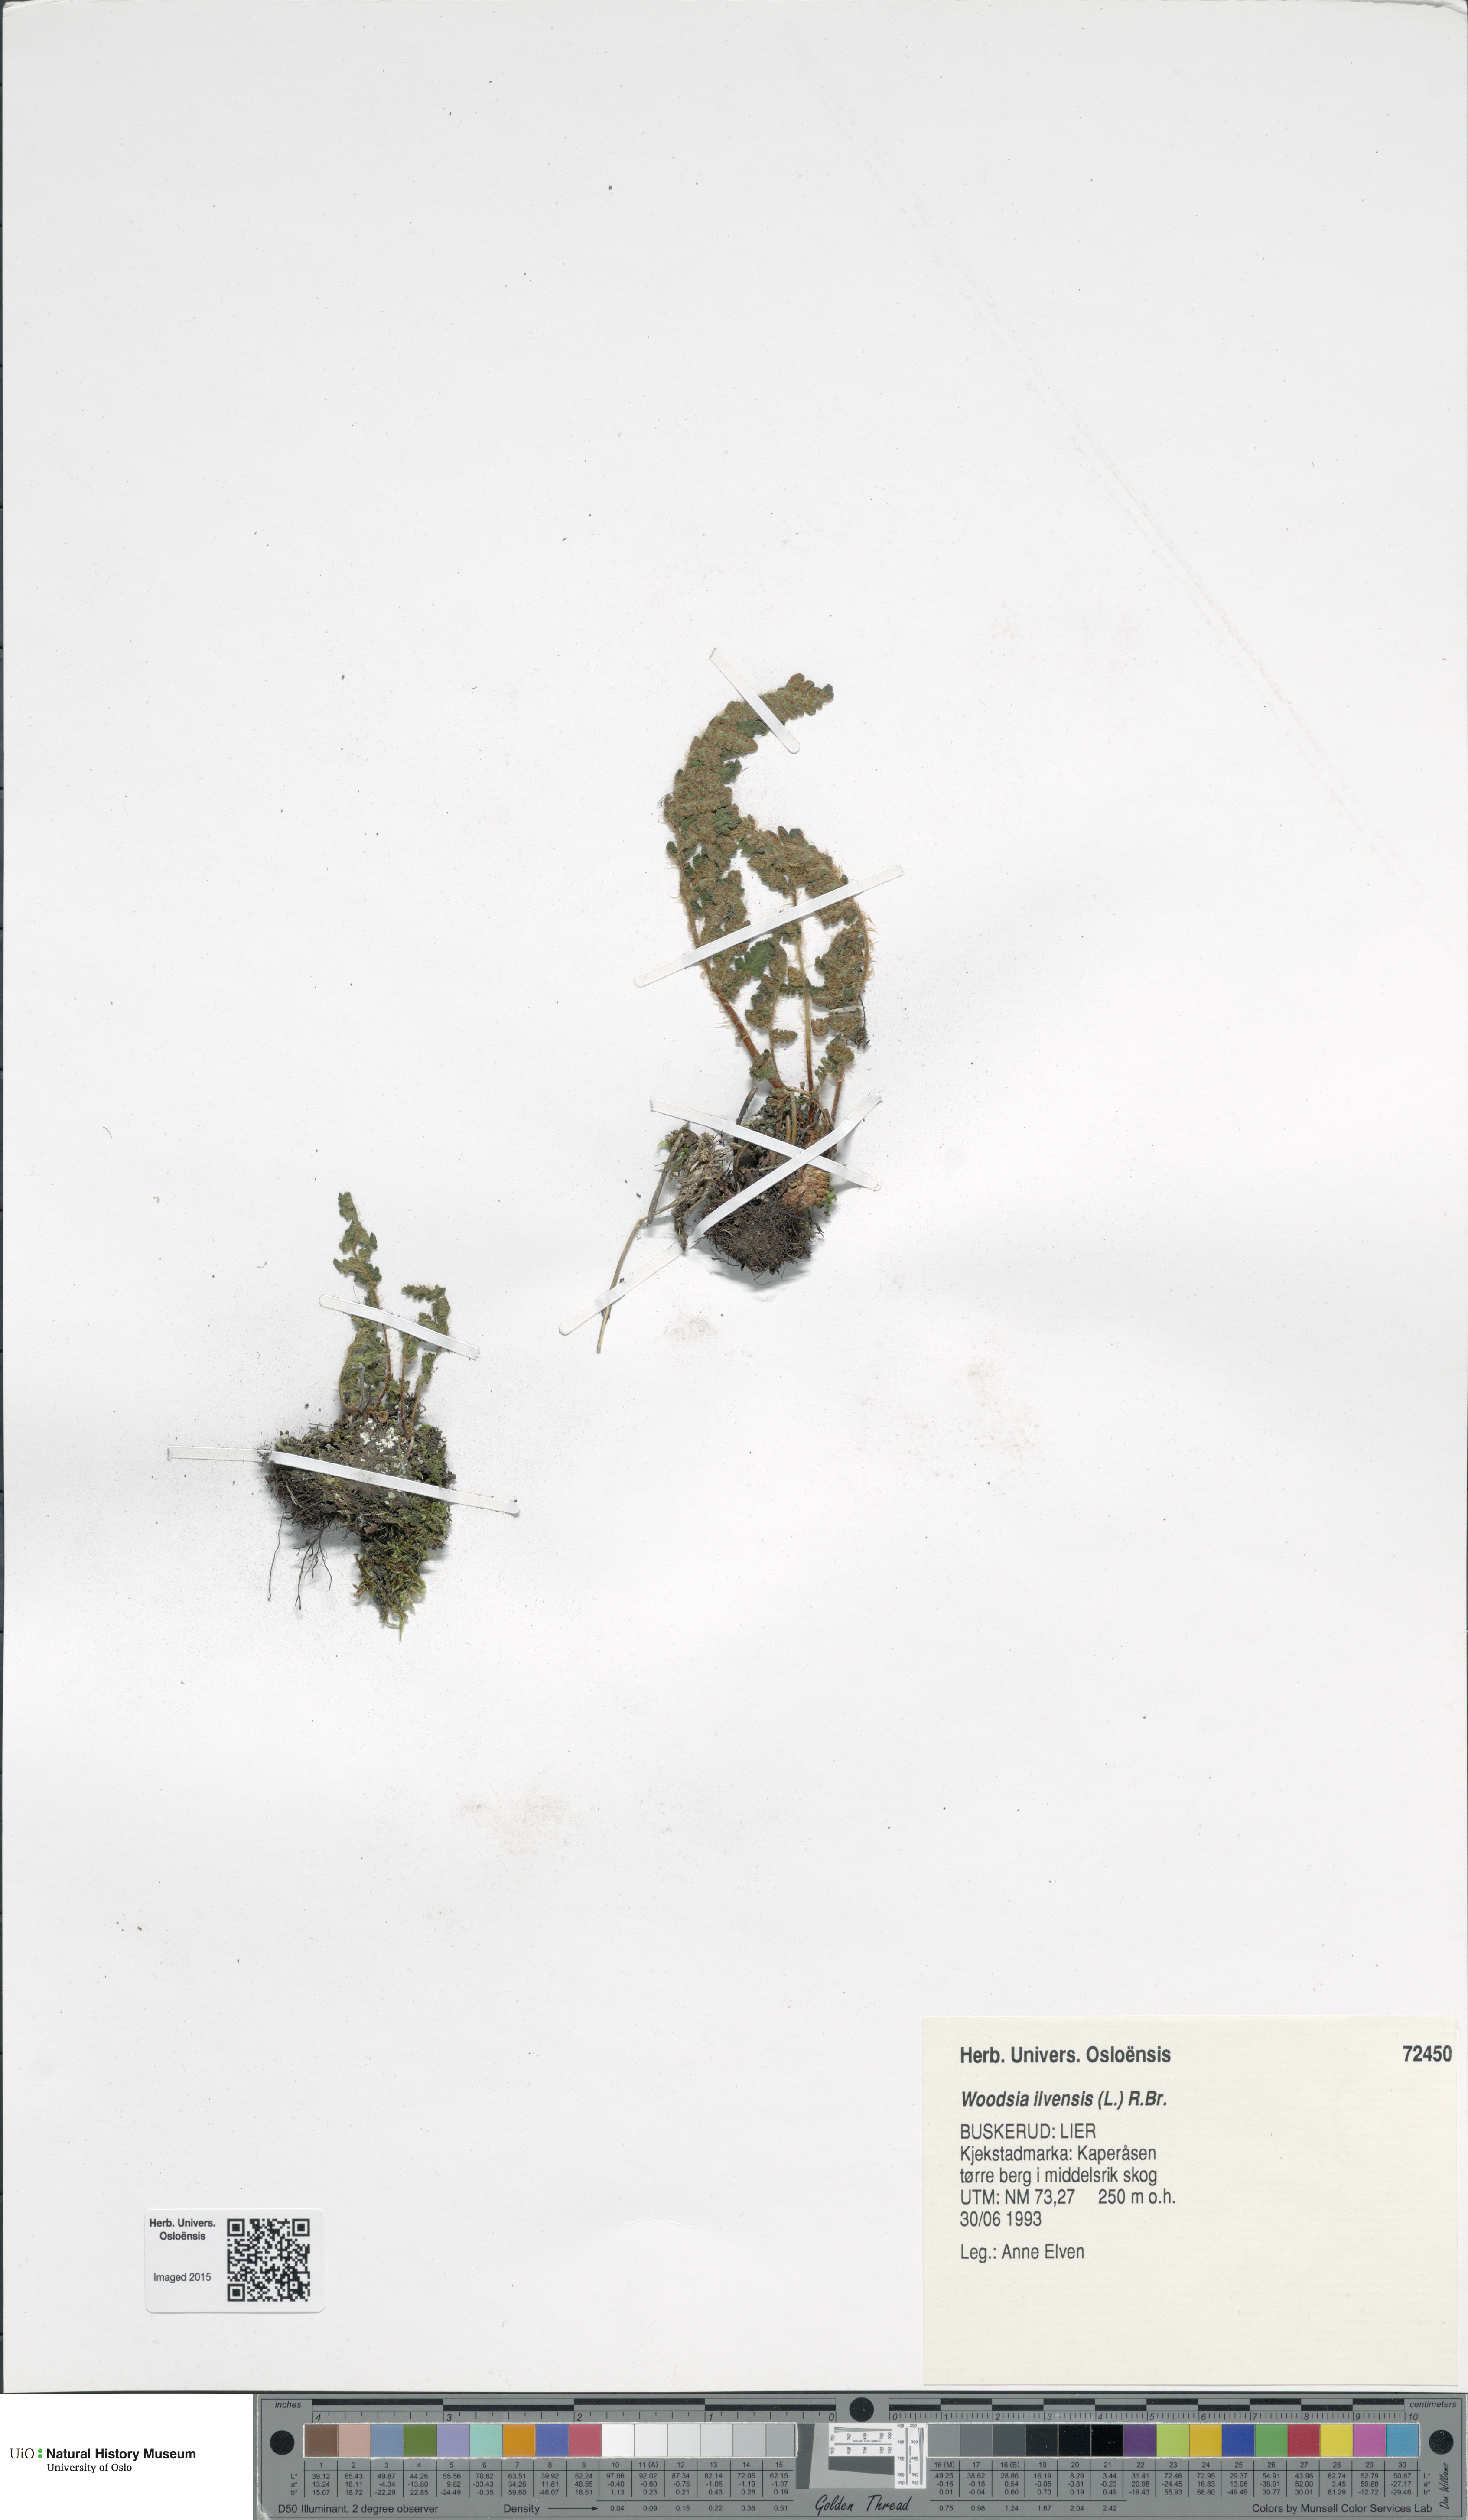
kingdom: Plantae
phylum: Tracheophyta
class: Polypodiopsida
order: Polypodiales
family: Woodsiaceae
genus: Woodsia
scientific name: Woodsia ilvensis
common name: Fragrant woodsia
